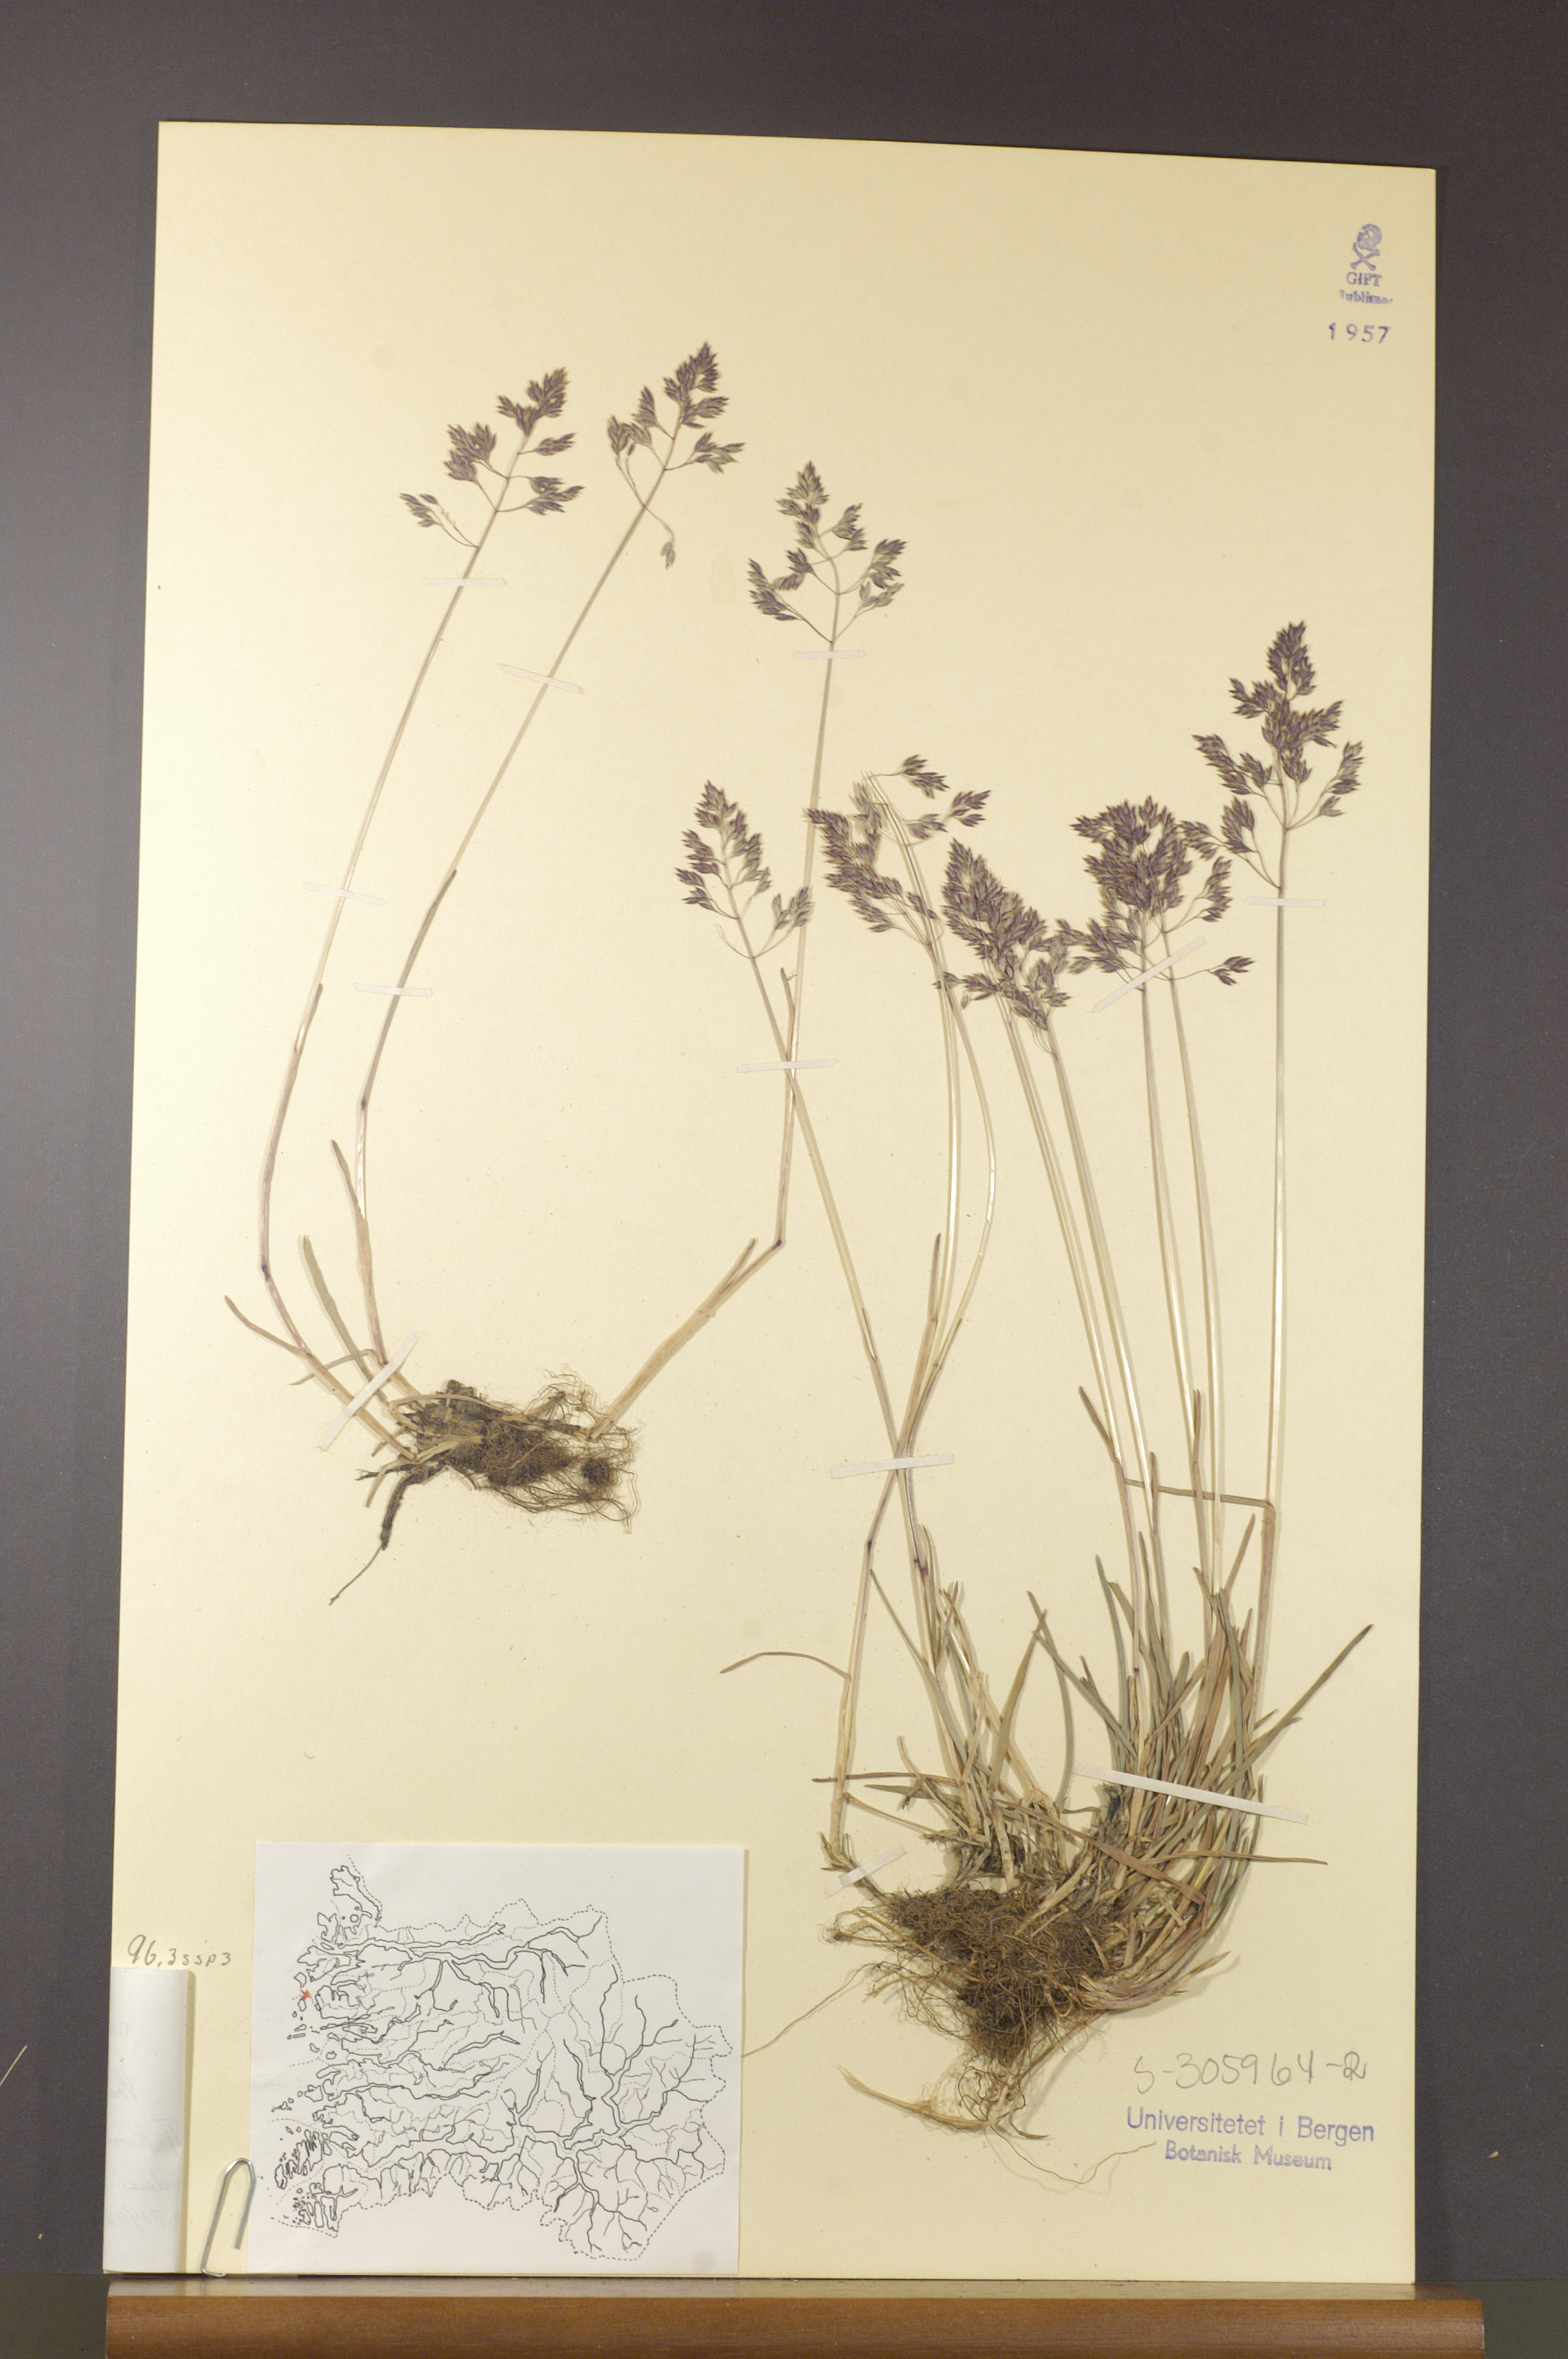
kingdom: Plantae
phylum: Tracheophyta
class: Liliopsida
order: Poales
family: Poaceae
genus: Poa
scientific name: Poa humilis
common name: Spreading meadow-grass
